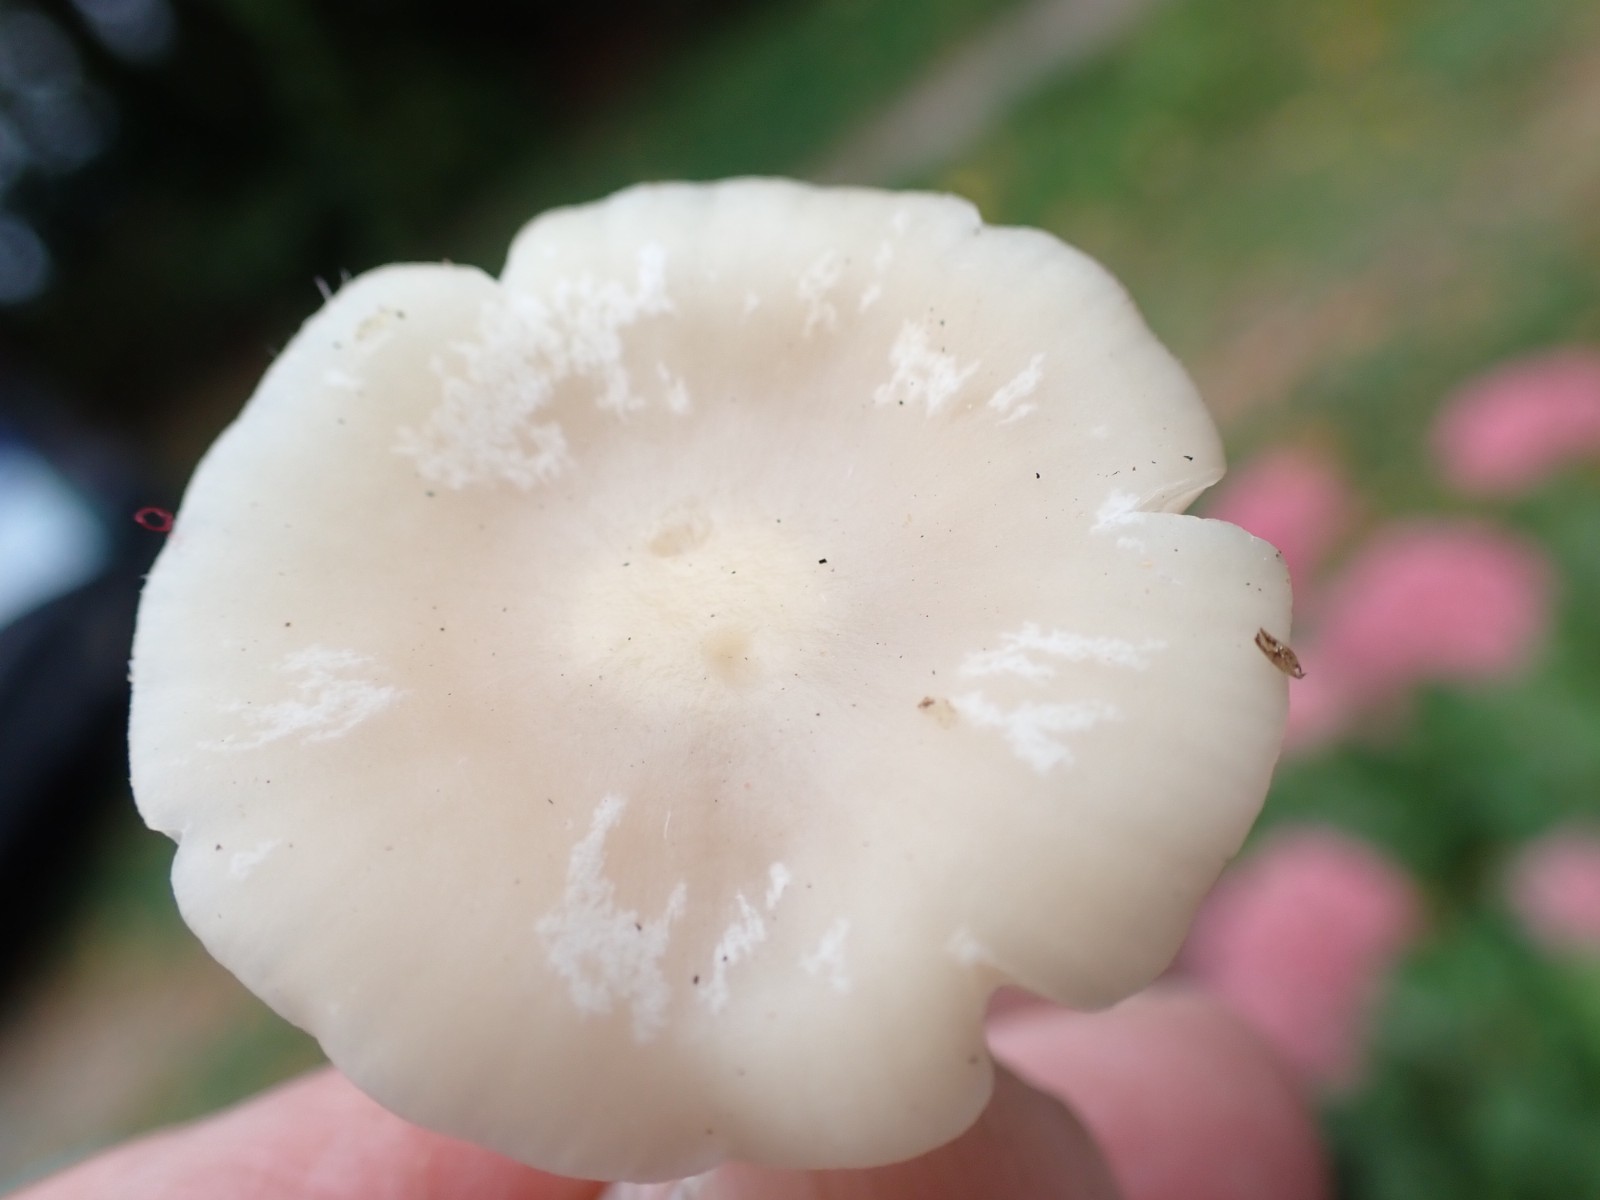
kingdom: Fungi
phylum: Basidiomycota
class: Agaricomycetes
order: Agaricales
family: Hygrophoraceae
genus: Cuphophyllus
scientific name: Cuphophyllus
